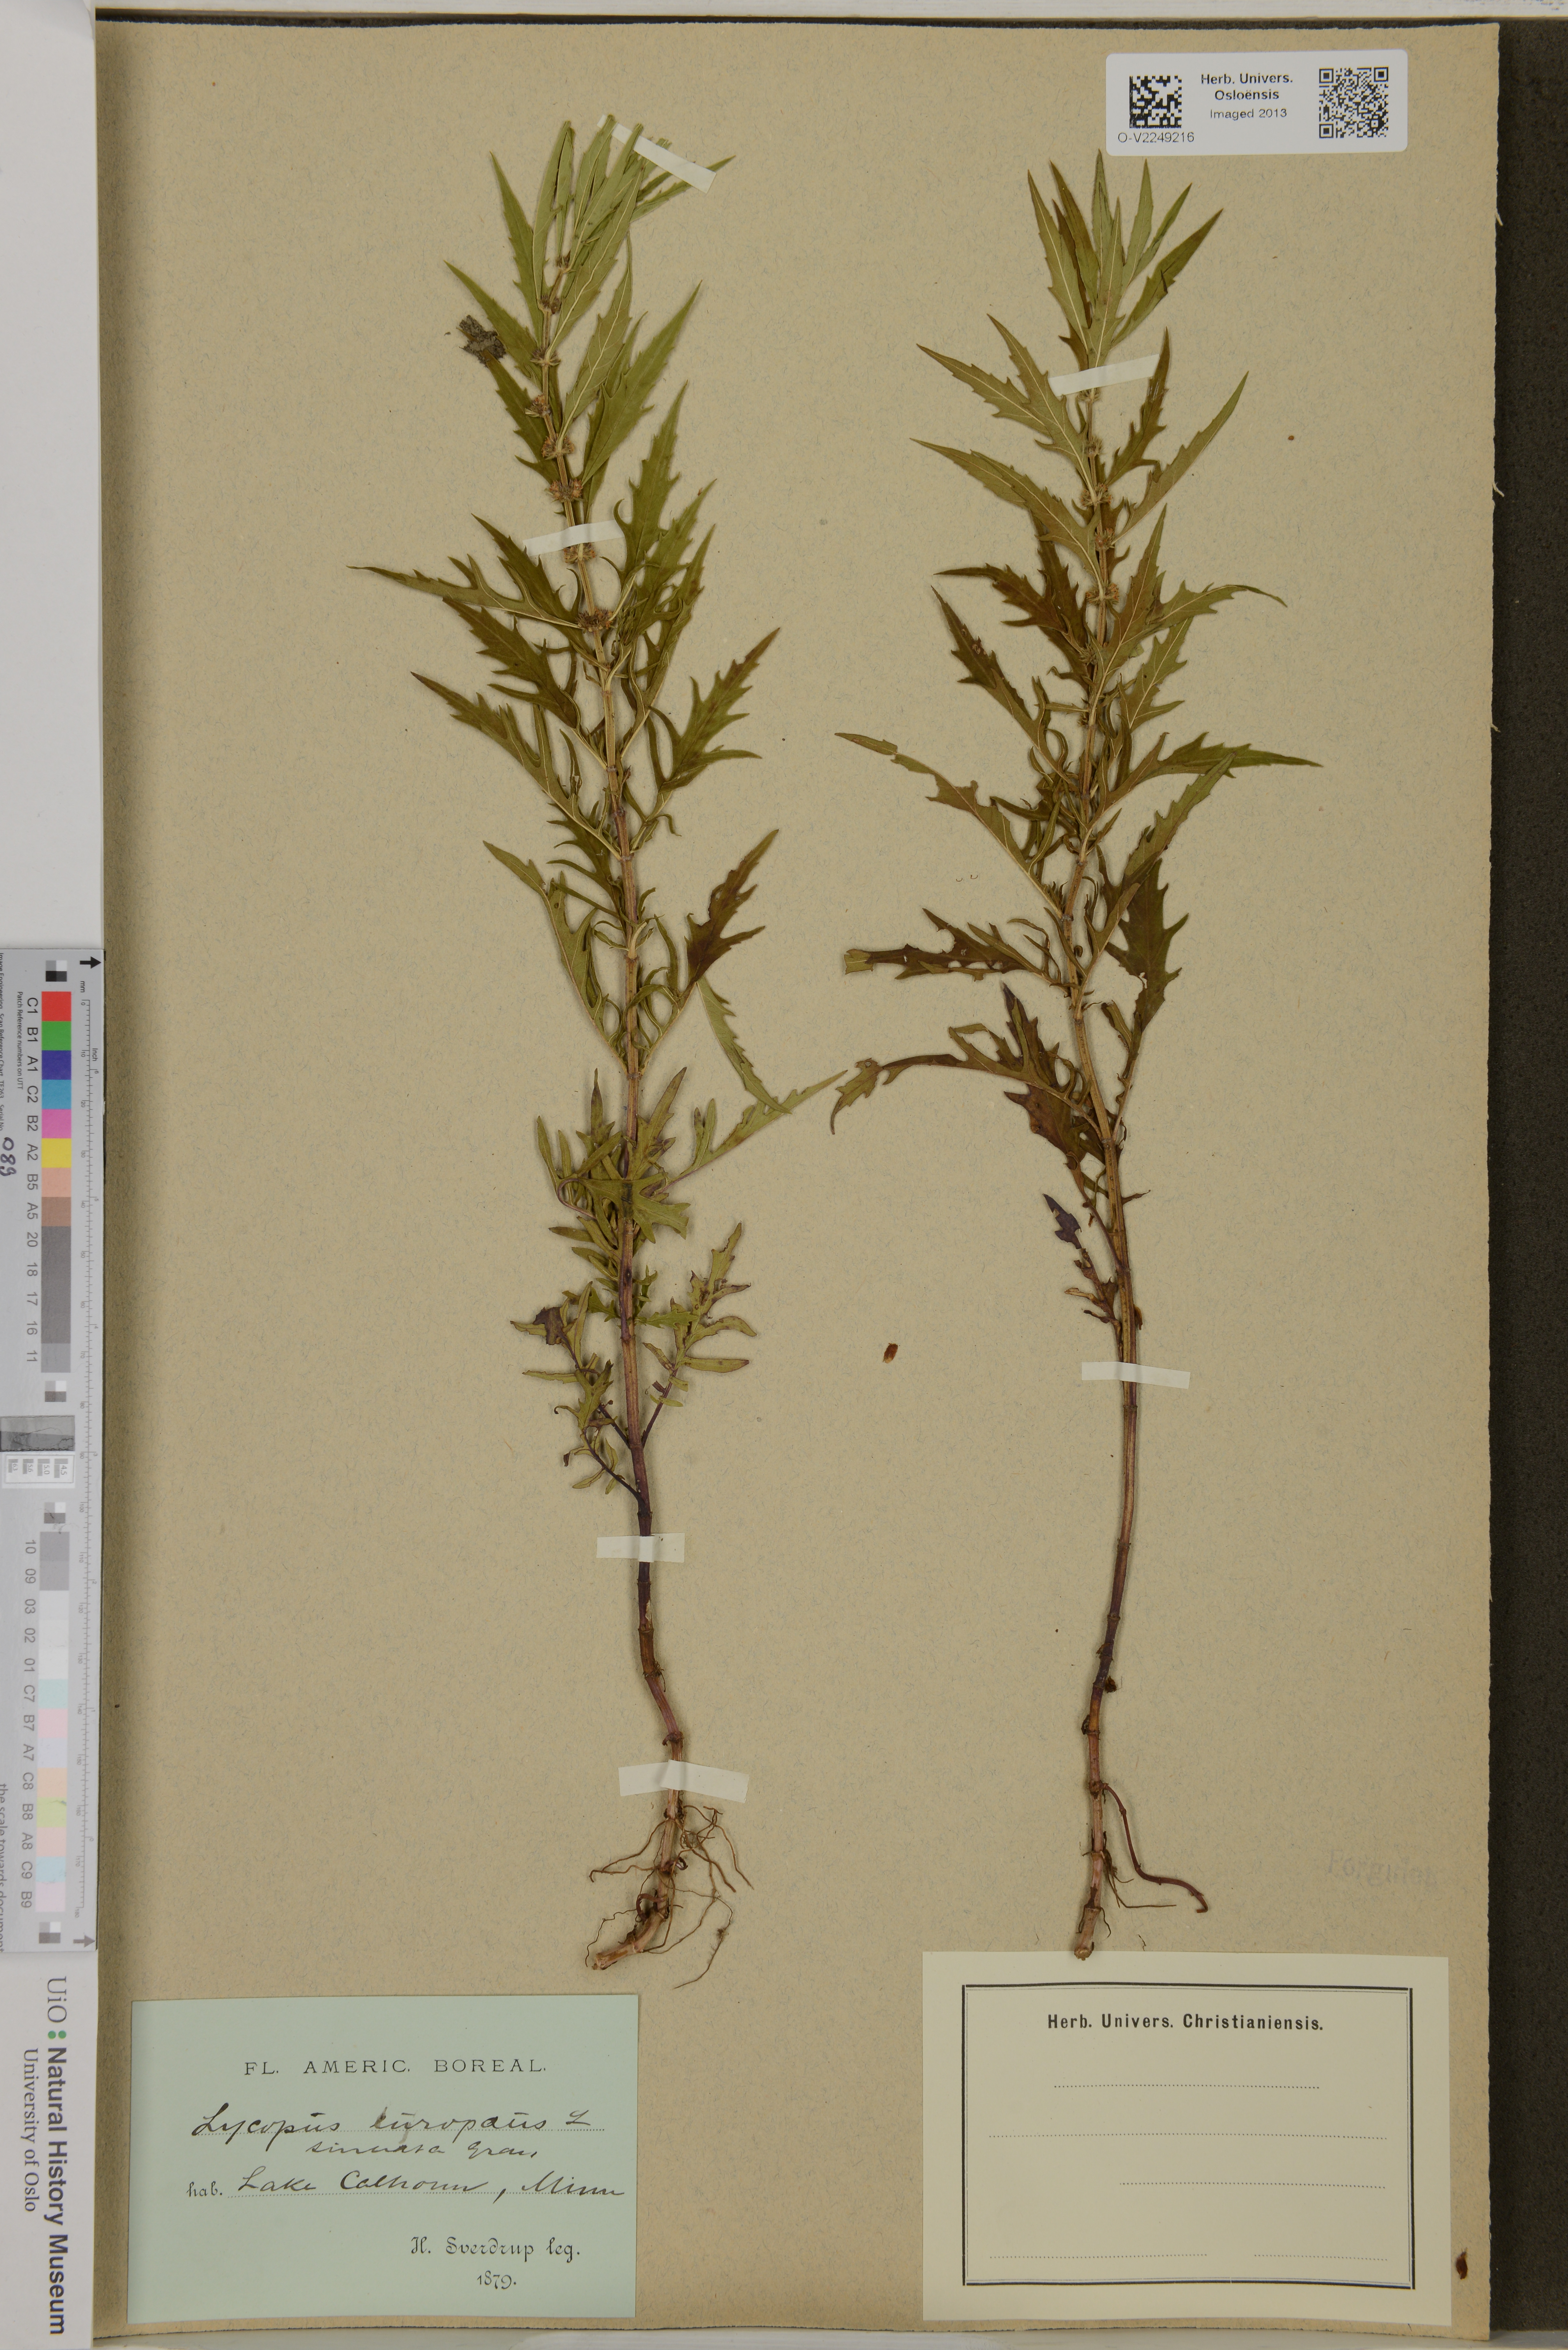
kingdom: Plantae
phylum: Tracheophyta
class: Magnoliopsida
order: Lamiales
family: Lamiaceae
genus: Lycopus
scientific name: Lycopus europaeus
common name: European bugleweed
